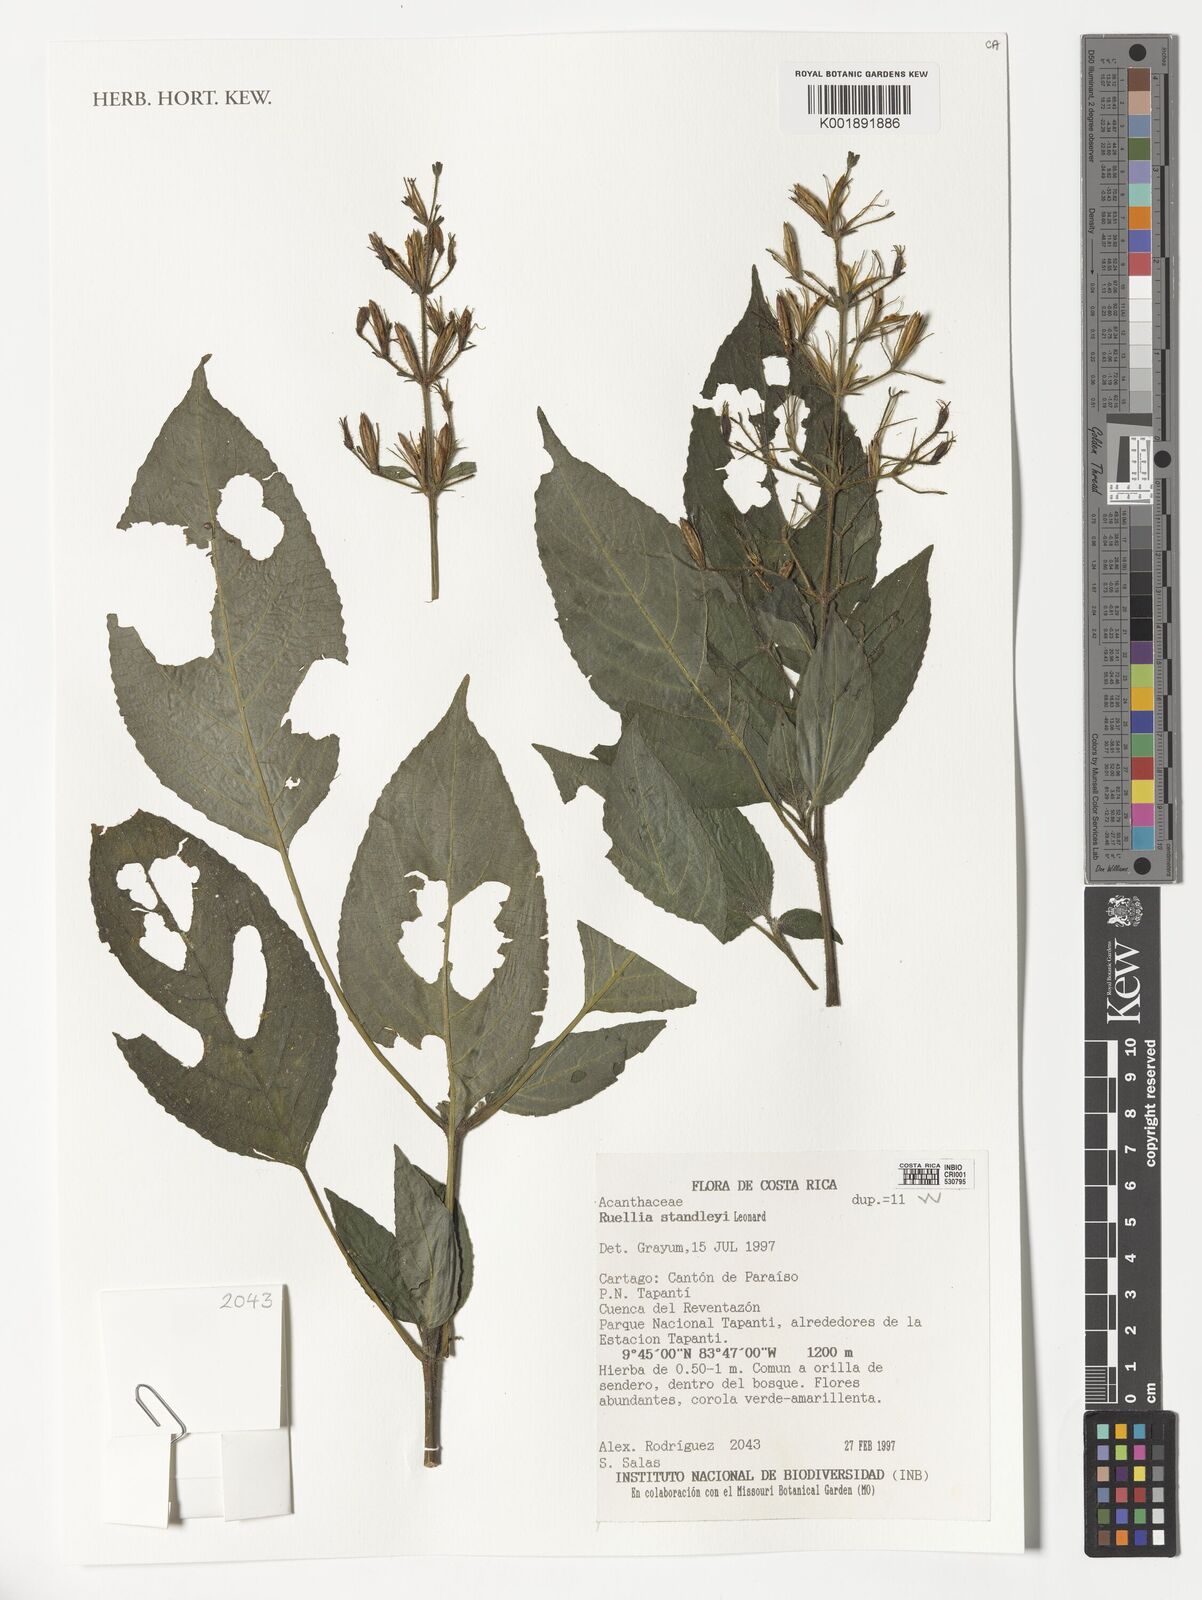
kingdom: Plantae
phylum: Tracheophyta
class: Magnoliopsida
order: Lamiales
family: Acanthaceae
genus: Ruellia
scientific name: Ruellia standleyi
